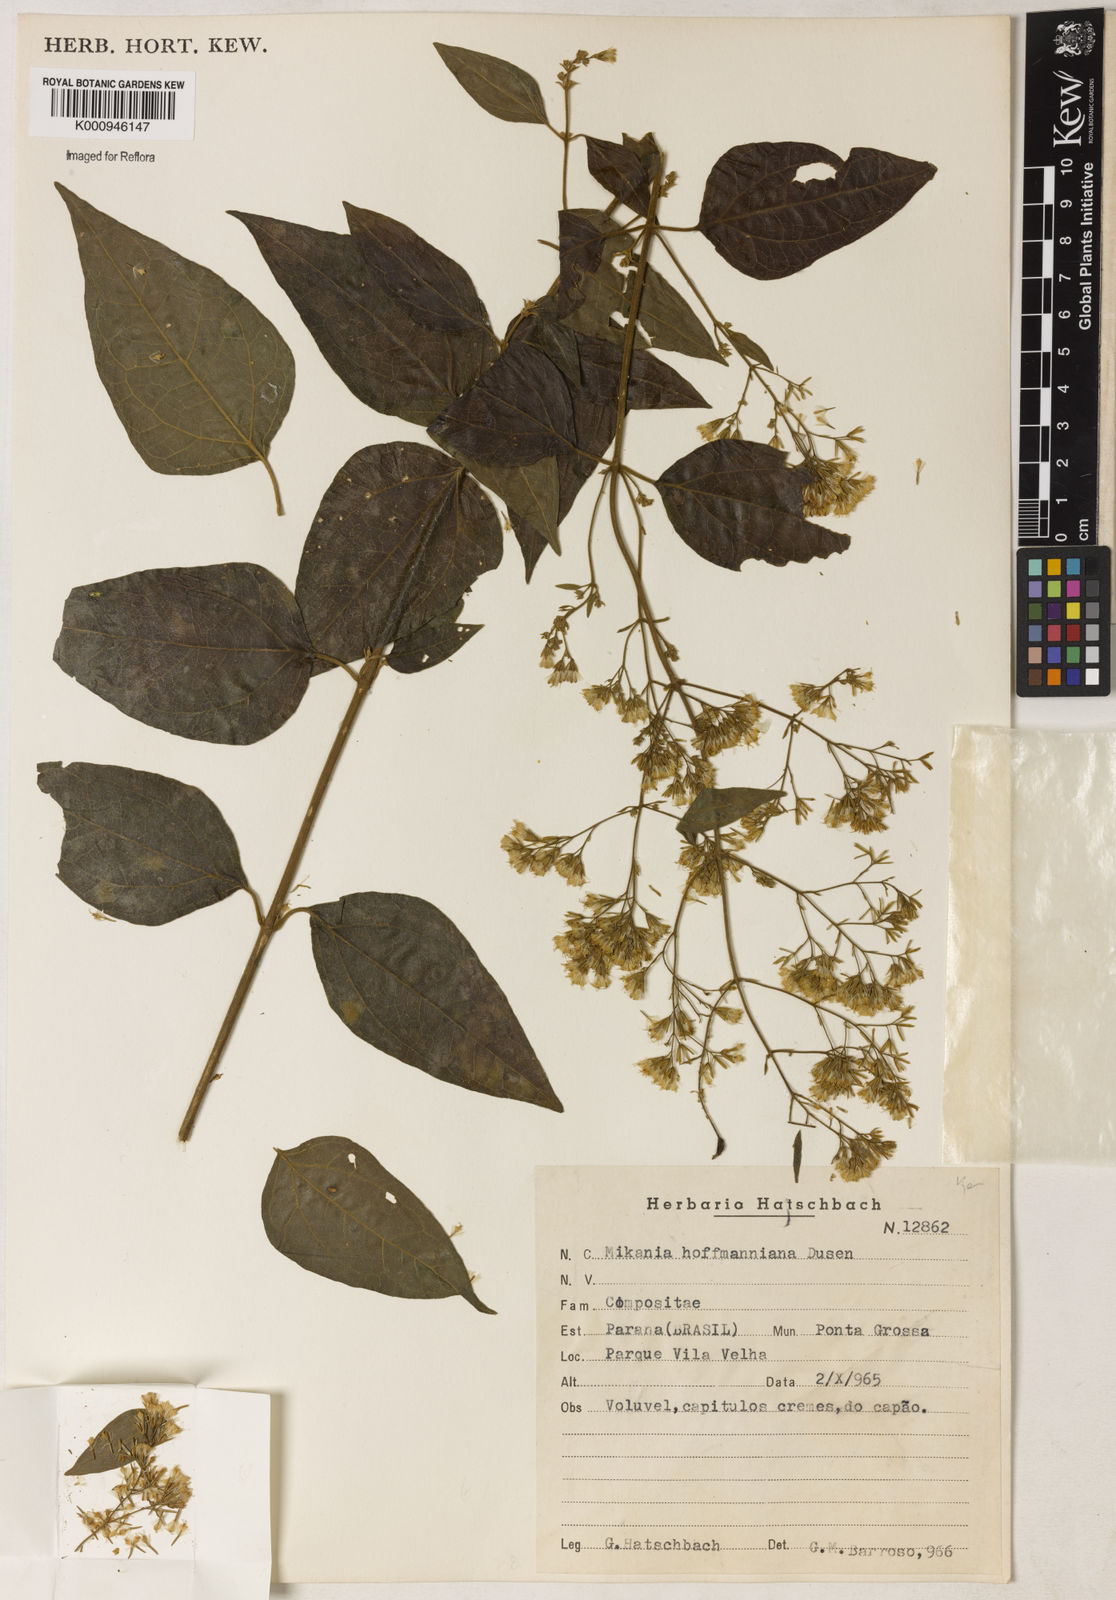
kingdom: Plantae
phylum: Tracheophyta
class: Magnoliopsida
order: Asterales
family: Asteraceae
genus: Mikania
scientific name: Mikania
